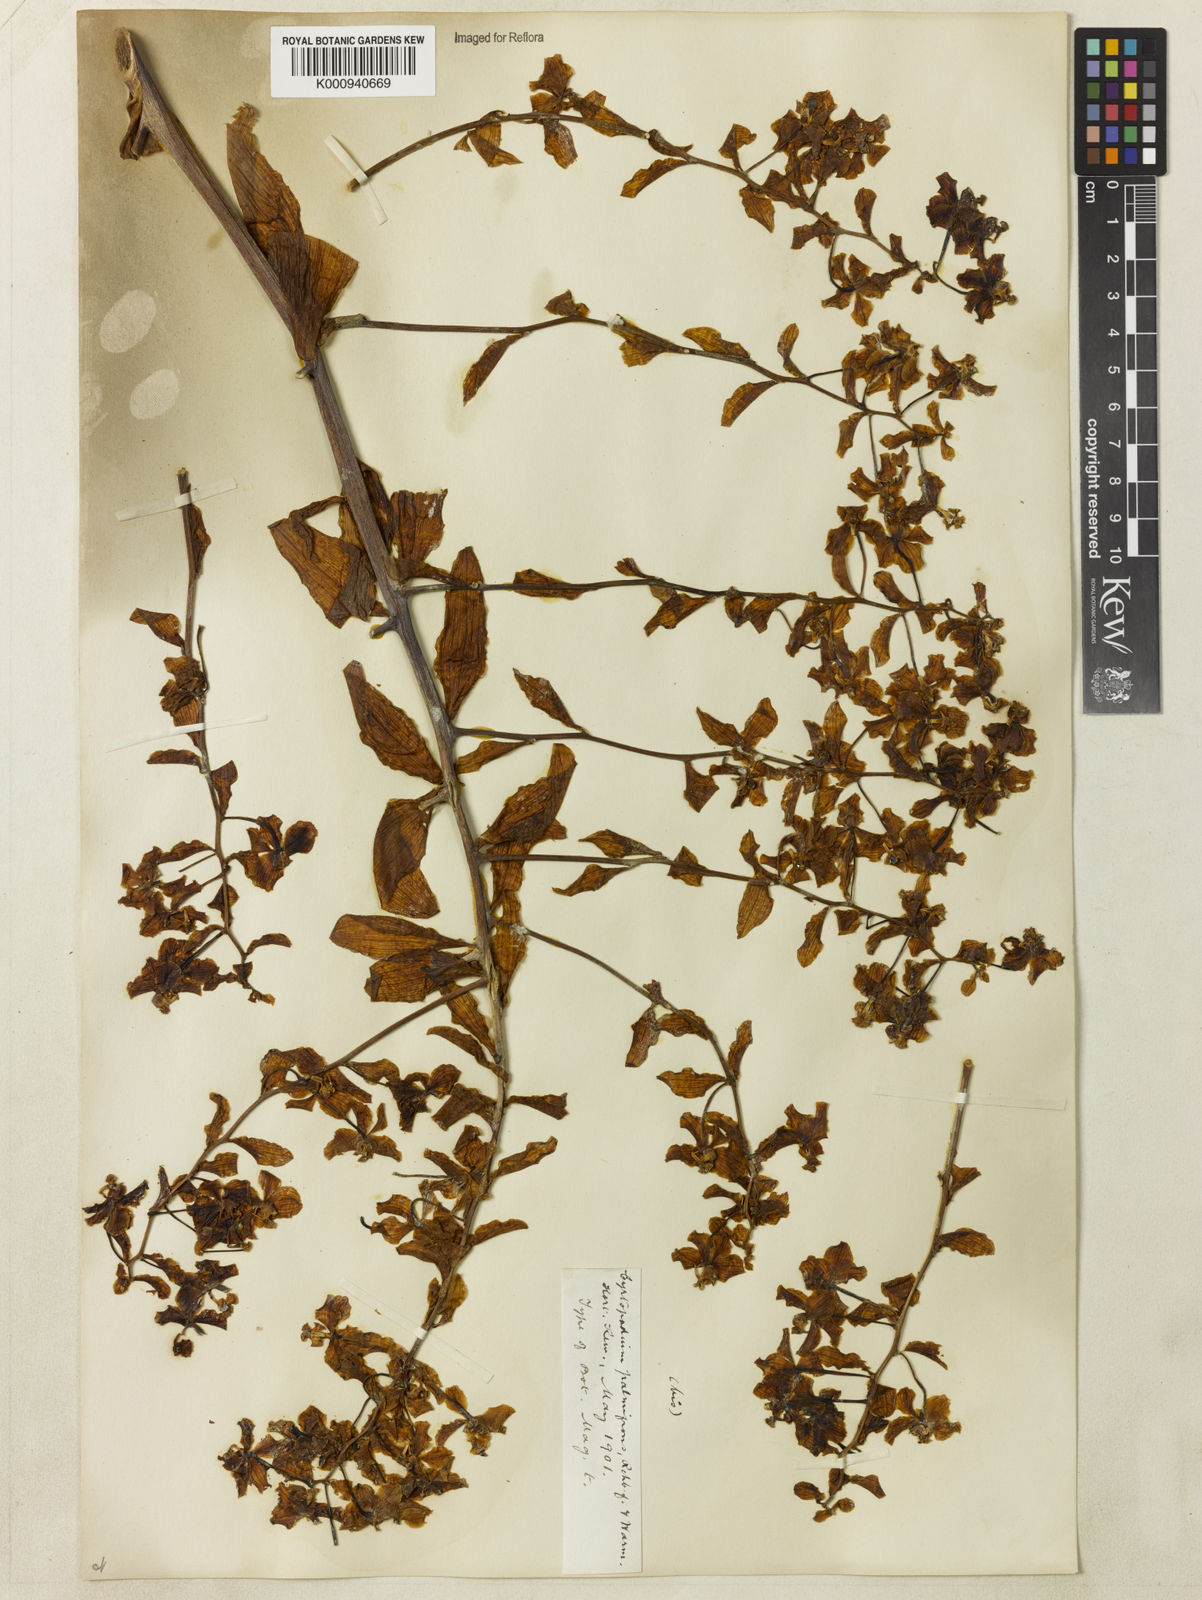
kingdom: Plantae
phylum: Tracheophyta
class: Liliopsida
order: Asparagales
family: Orchidaceae
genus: Cyrtopodium
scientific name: Cyrtopodium palmifrons
